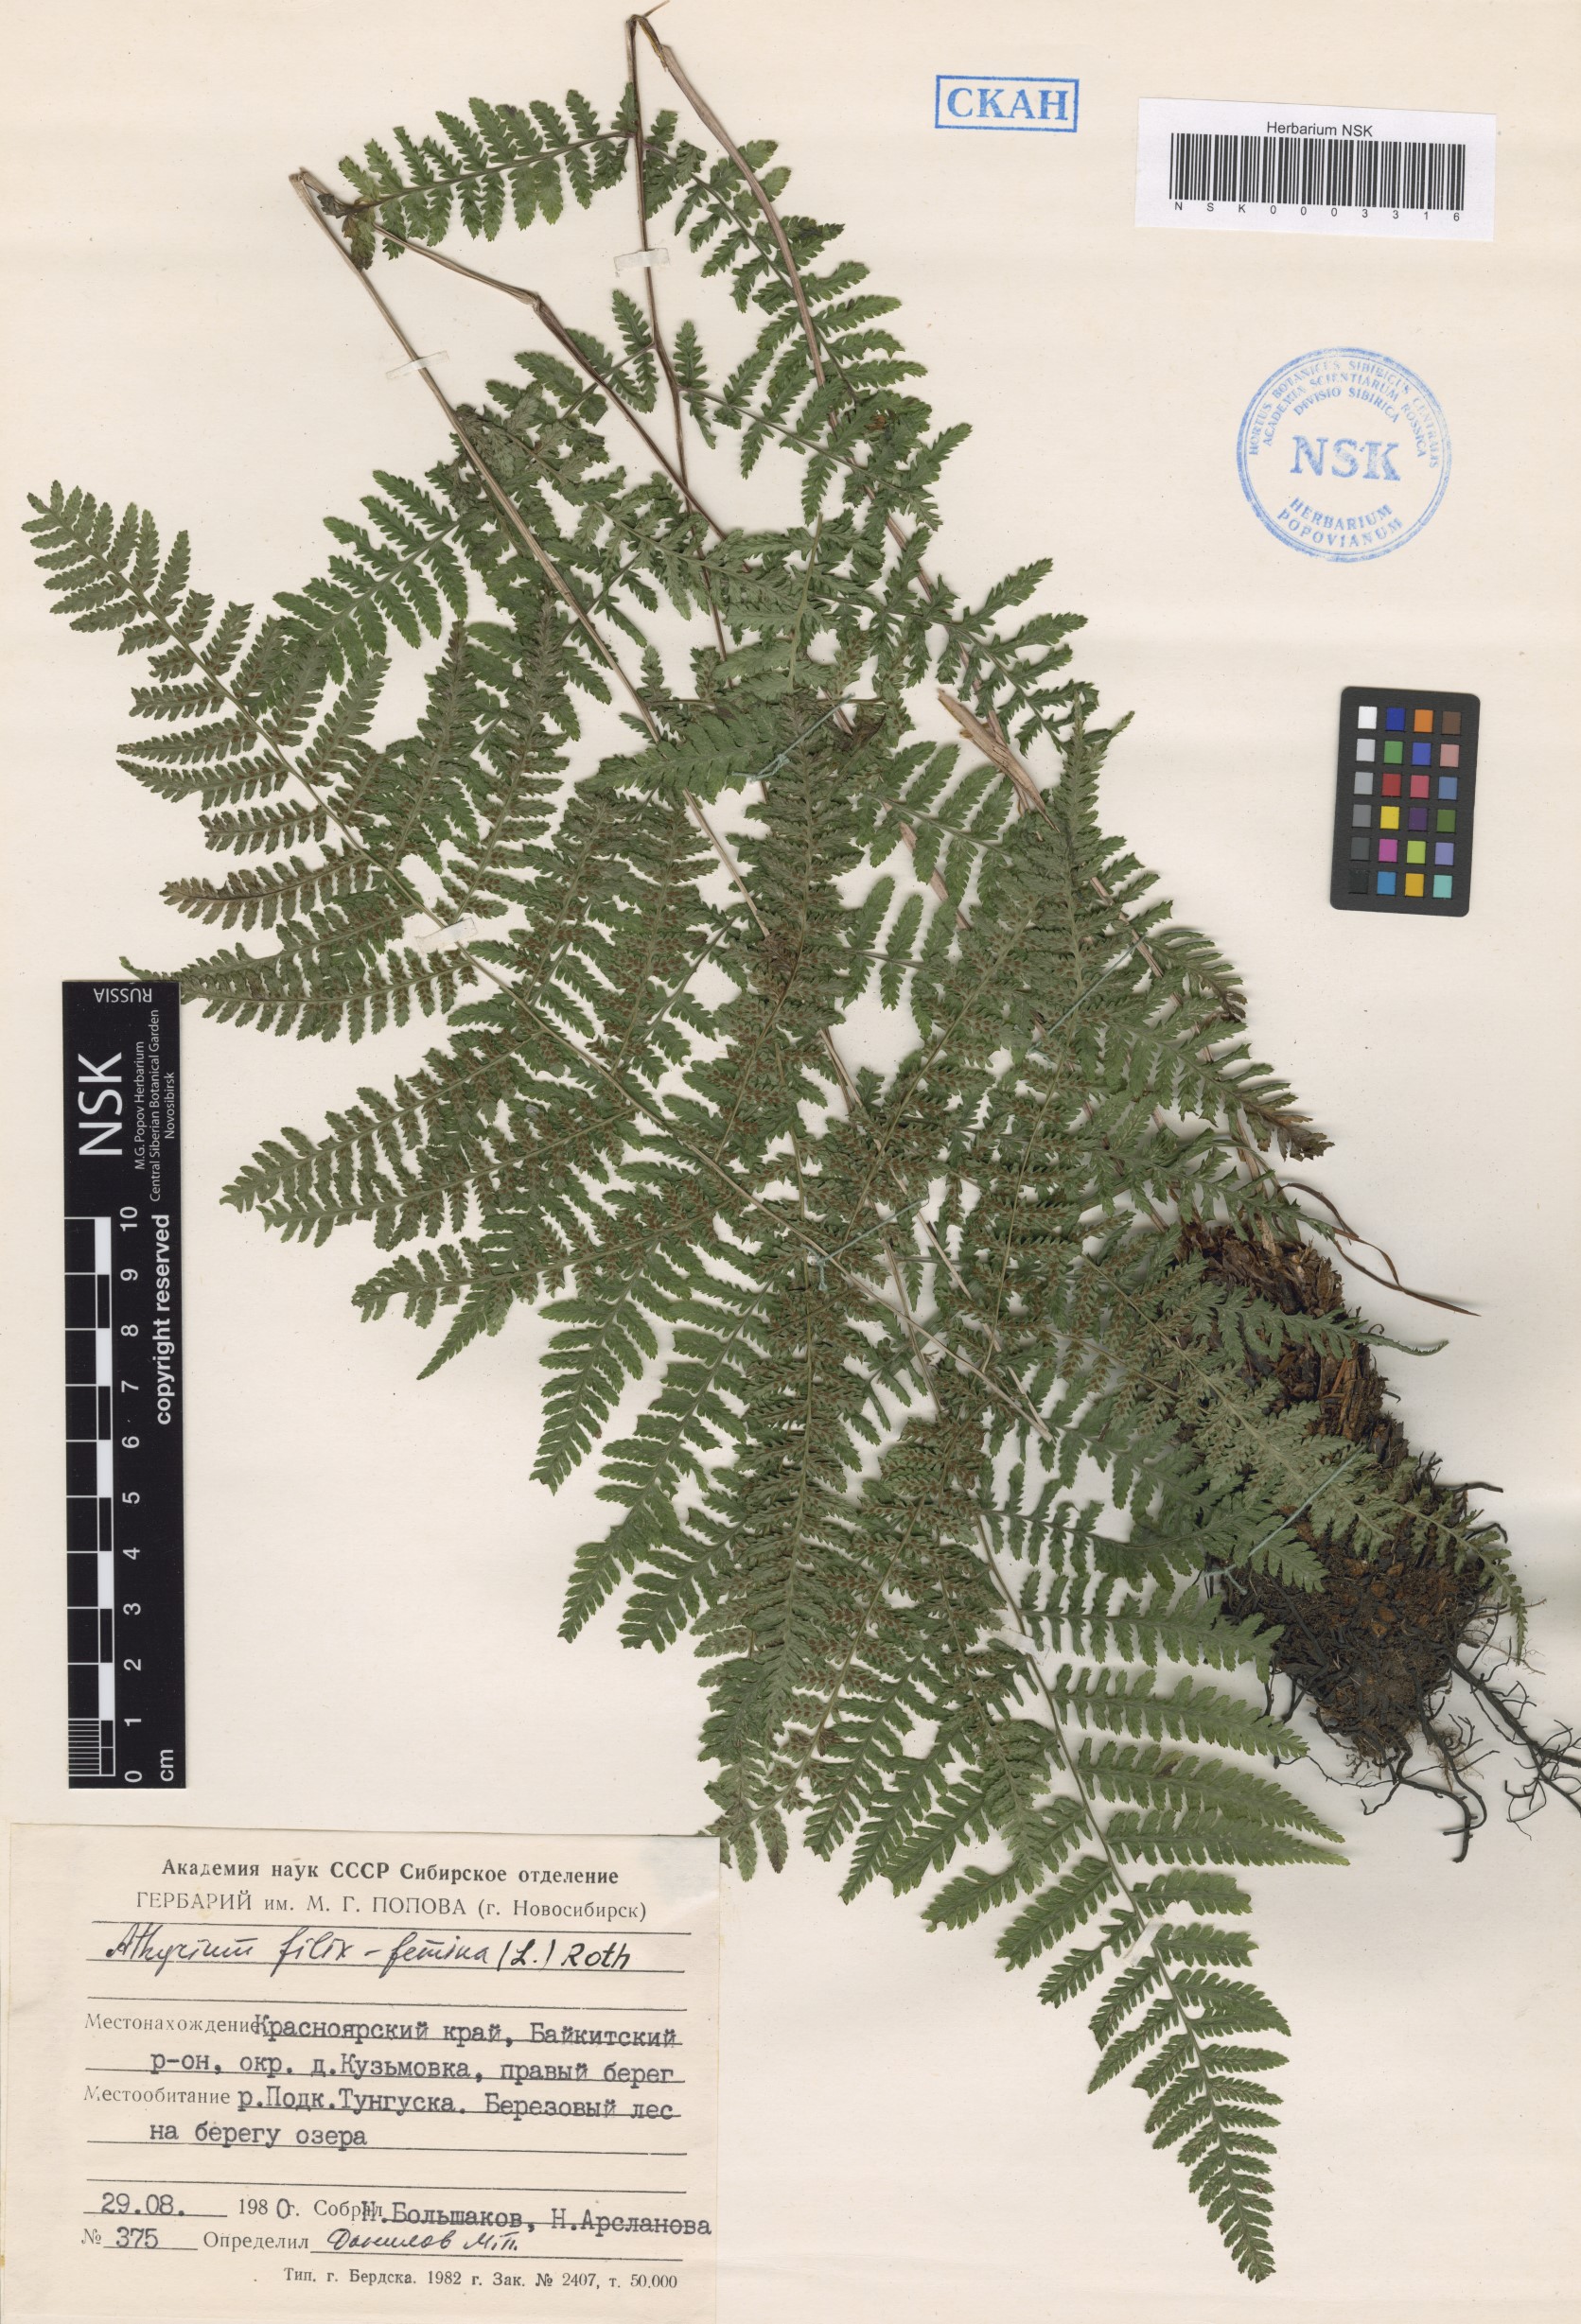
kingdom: Plantae
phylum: Tracheophyta
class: Polypodiopsida
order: Polypodiales
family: Athyriaceae
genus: Athyrium
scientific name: Athyrium filix-femina
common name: Lady fern
